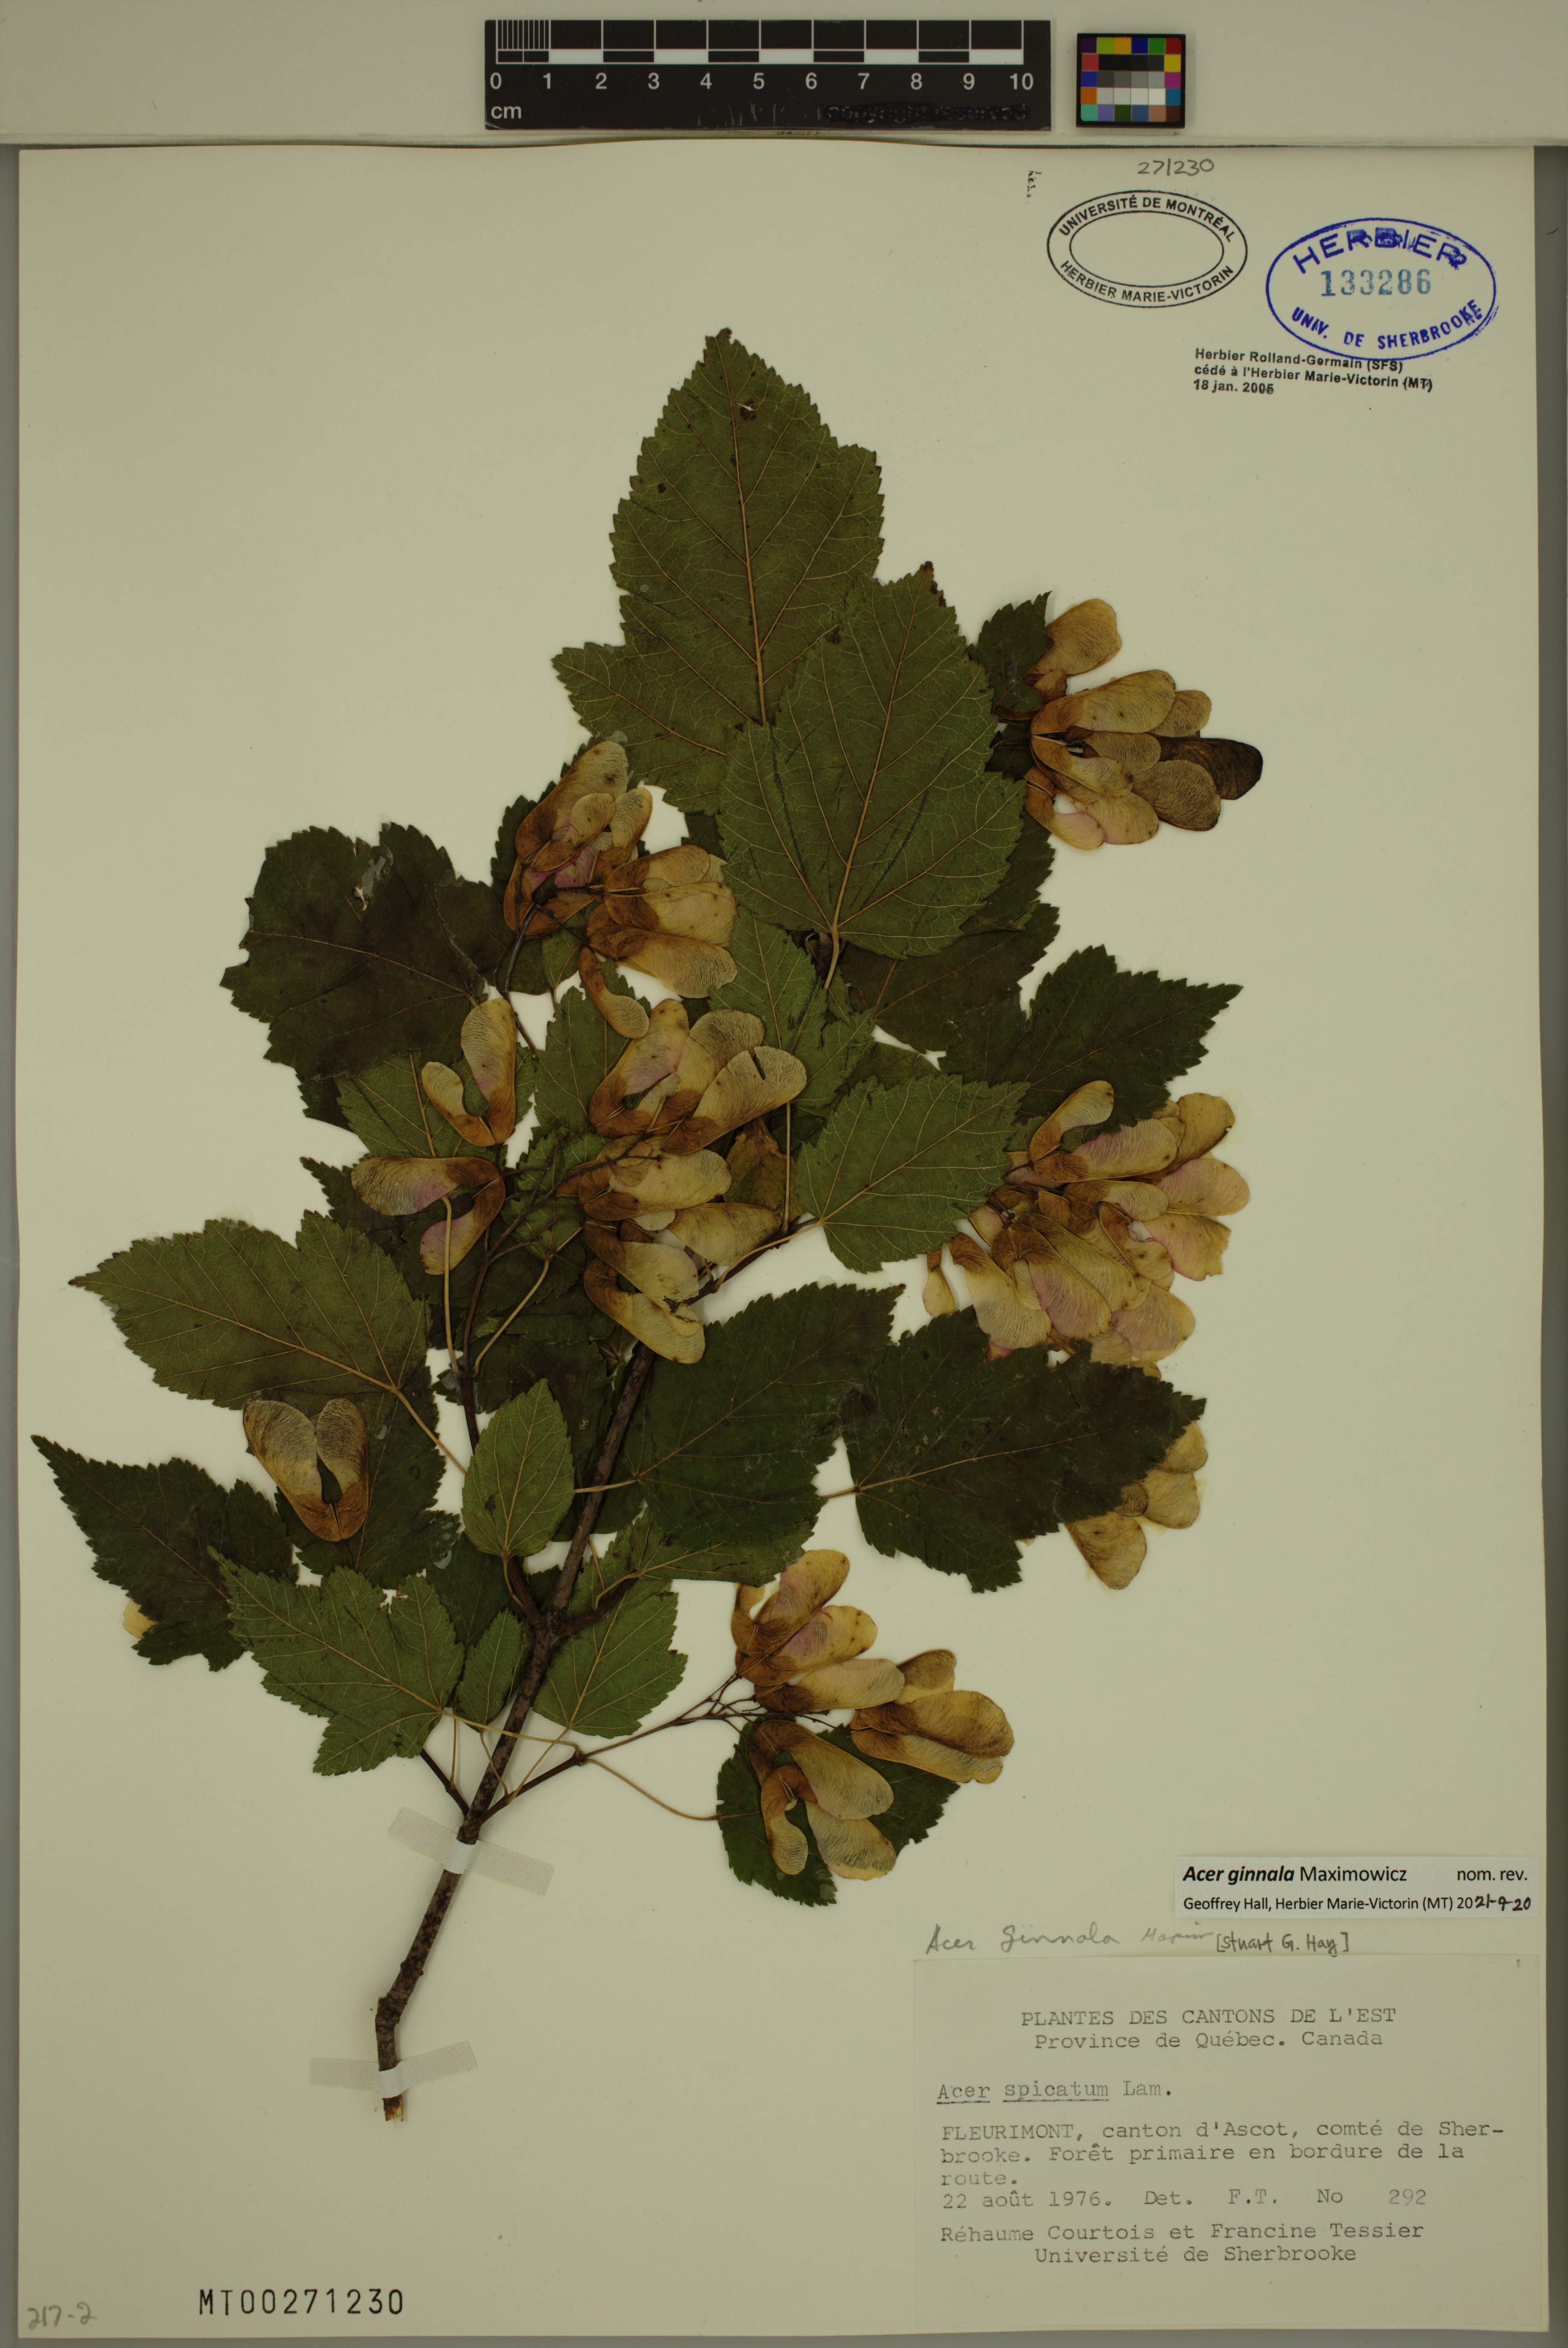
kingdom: Plantae
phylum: Tracheophyta
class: Magnoliopsida
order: Sapindales
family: Sapindaceae
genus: Acer
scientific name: Acer tataricum
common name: Tartar maple
